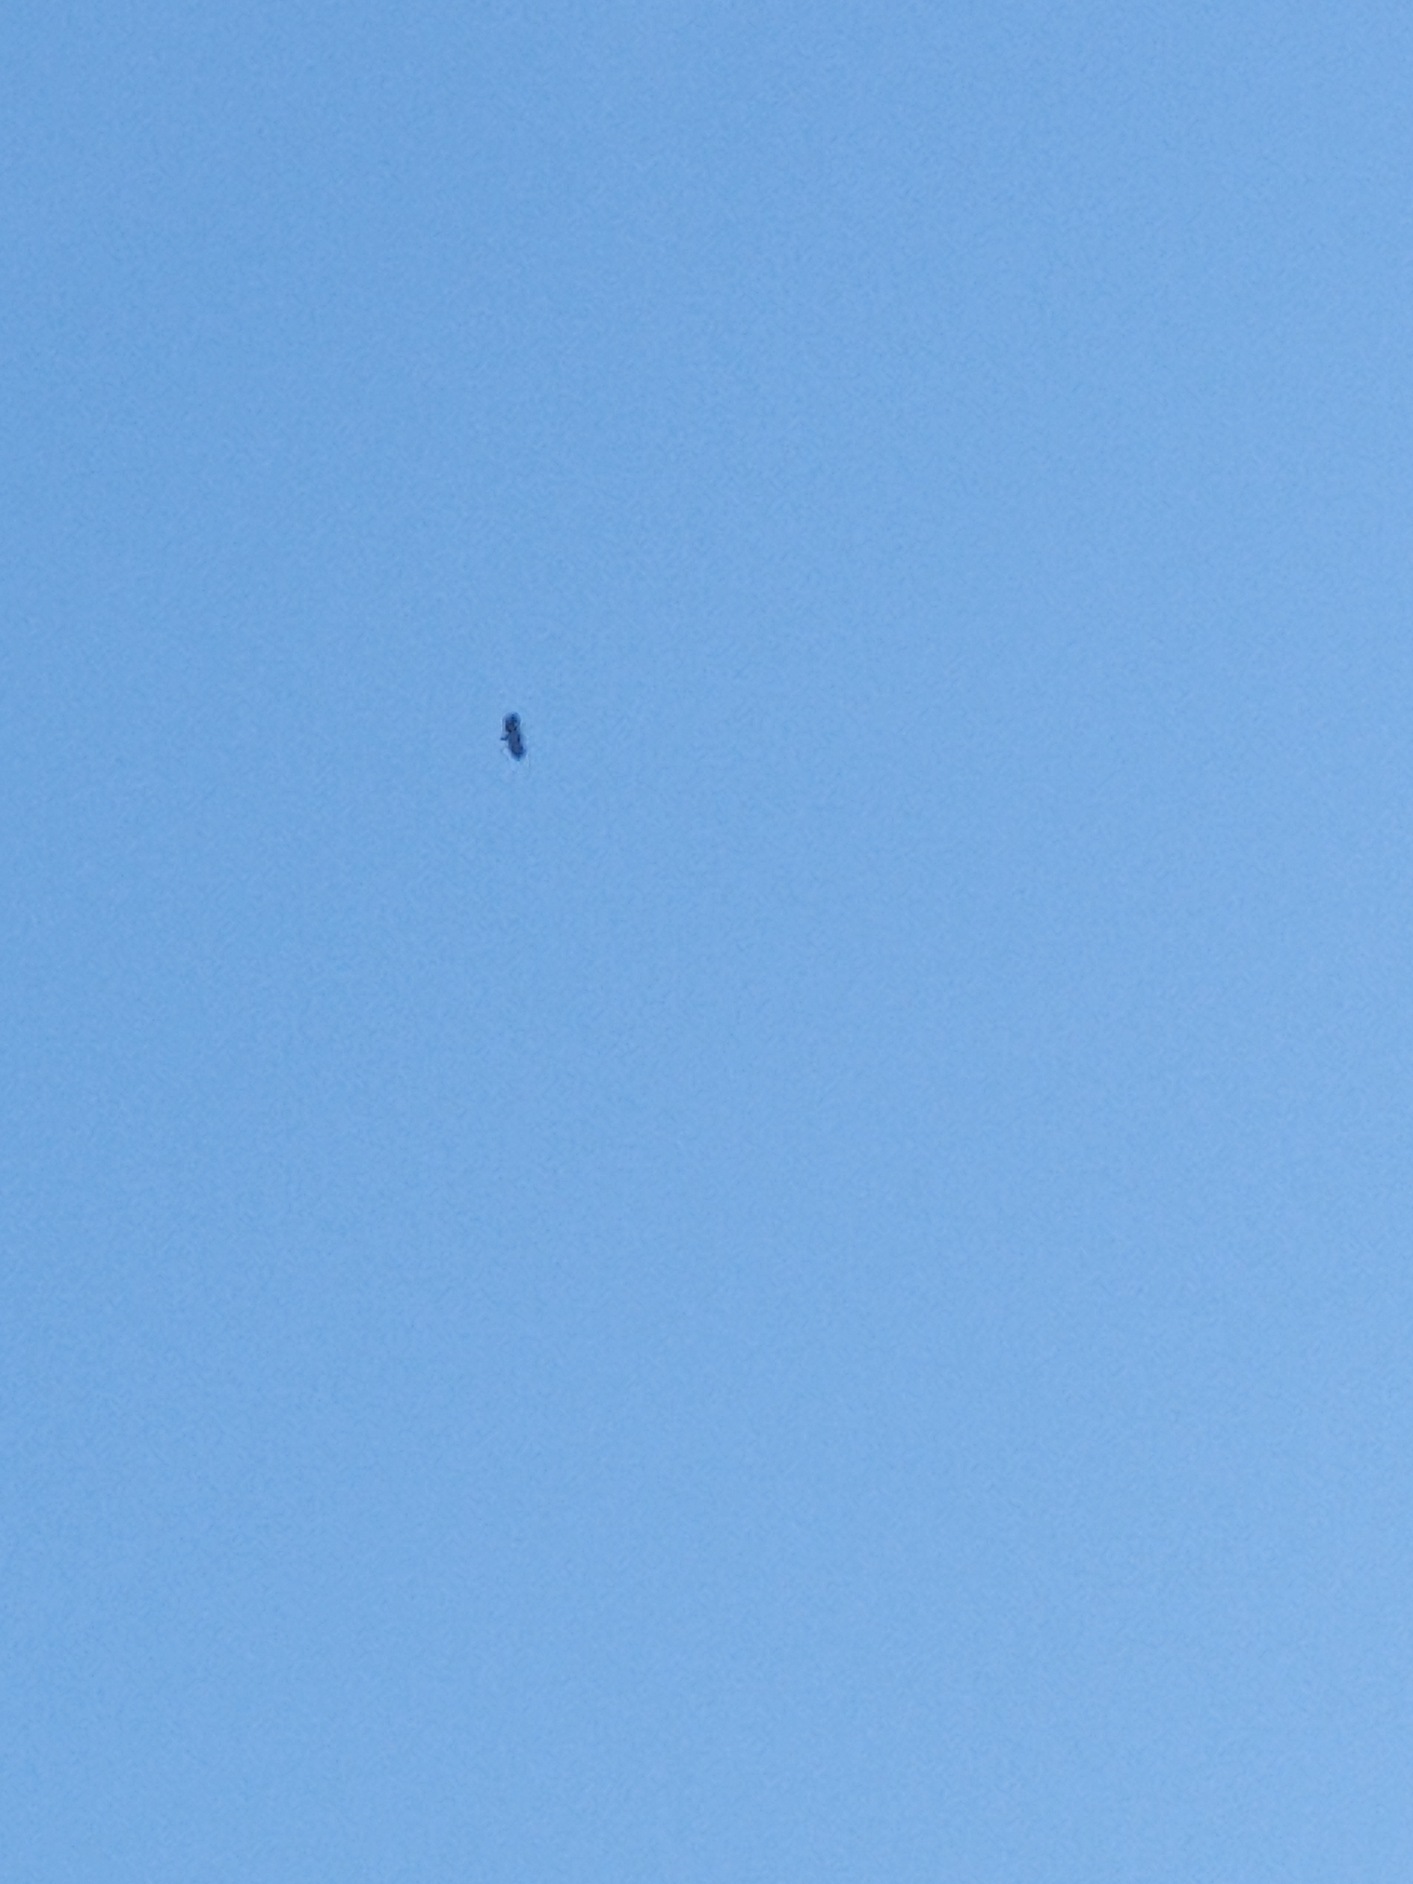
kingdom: Animalia
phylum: Chordata
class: Aves
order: Accipitriformes
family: Accipitridae
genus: Haliaeetus
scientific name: Haliaeetus albicilla
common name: Havørn
